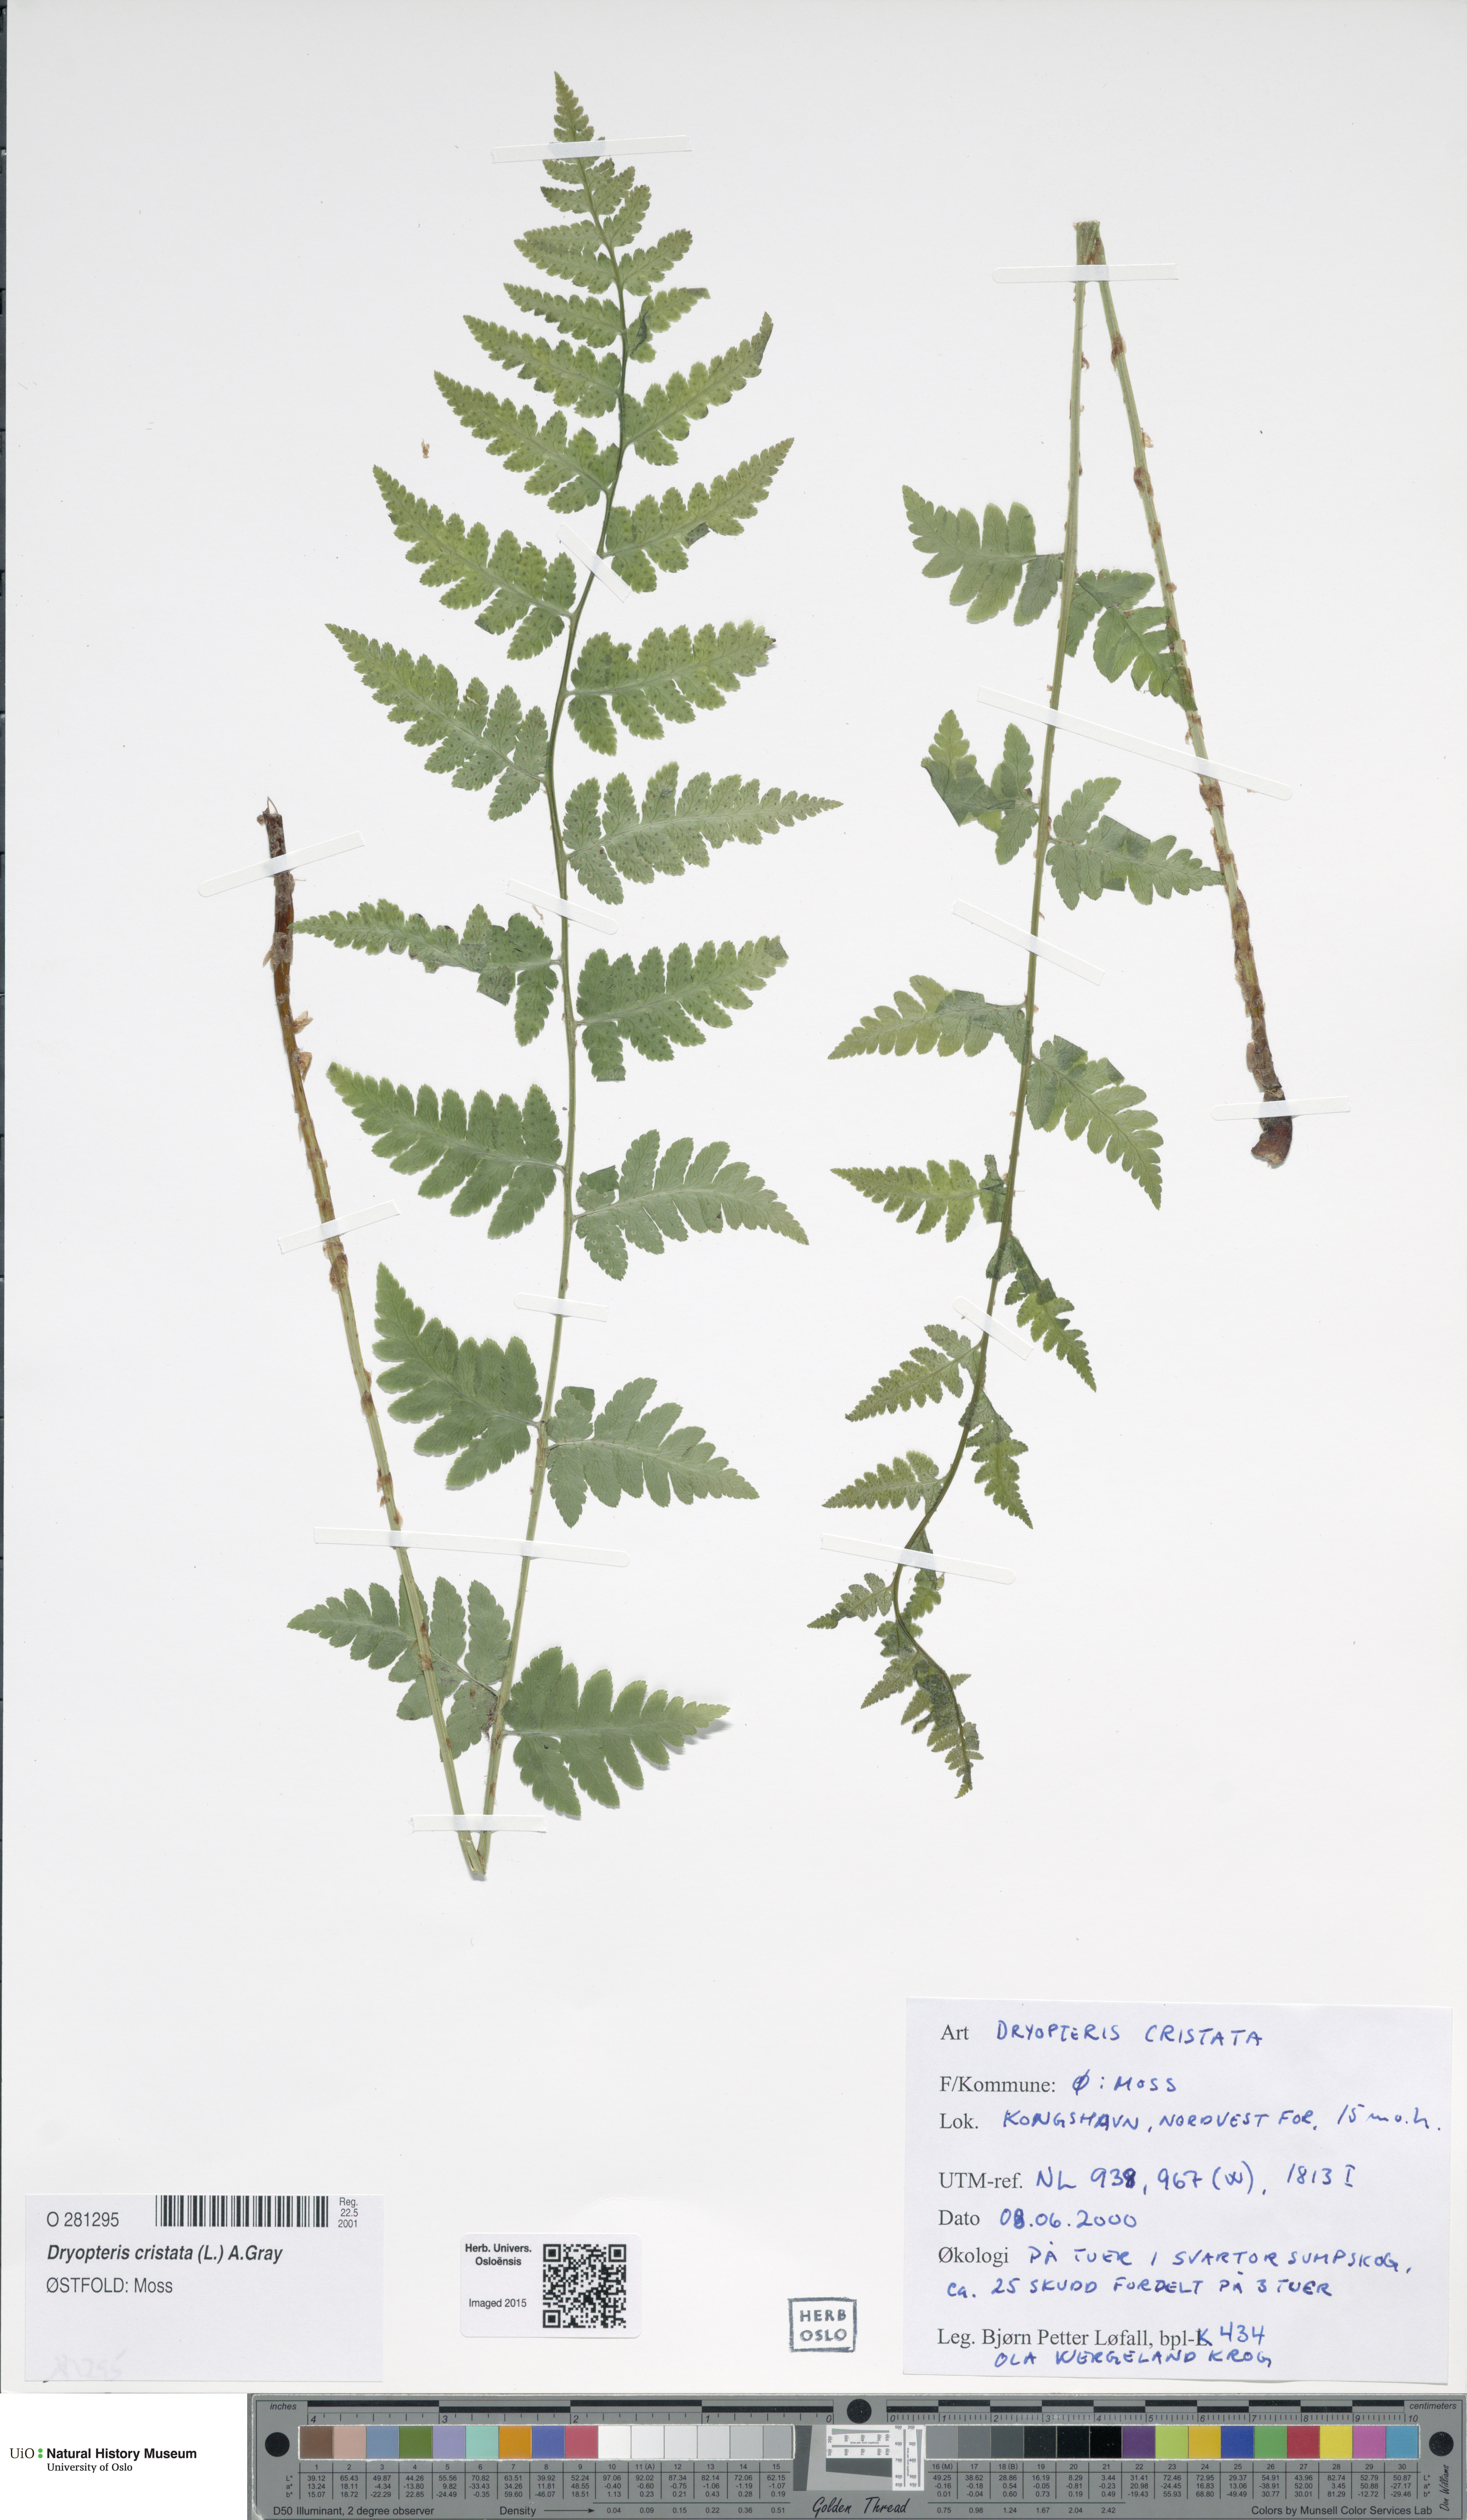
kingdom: Plantae
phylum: Tracheophyta
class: Polypodiopsida
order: Polypodiales
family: Dryopteridaceae
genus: Dryopteris
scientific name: Dryopteris cristata
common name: Crested wood fern
